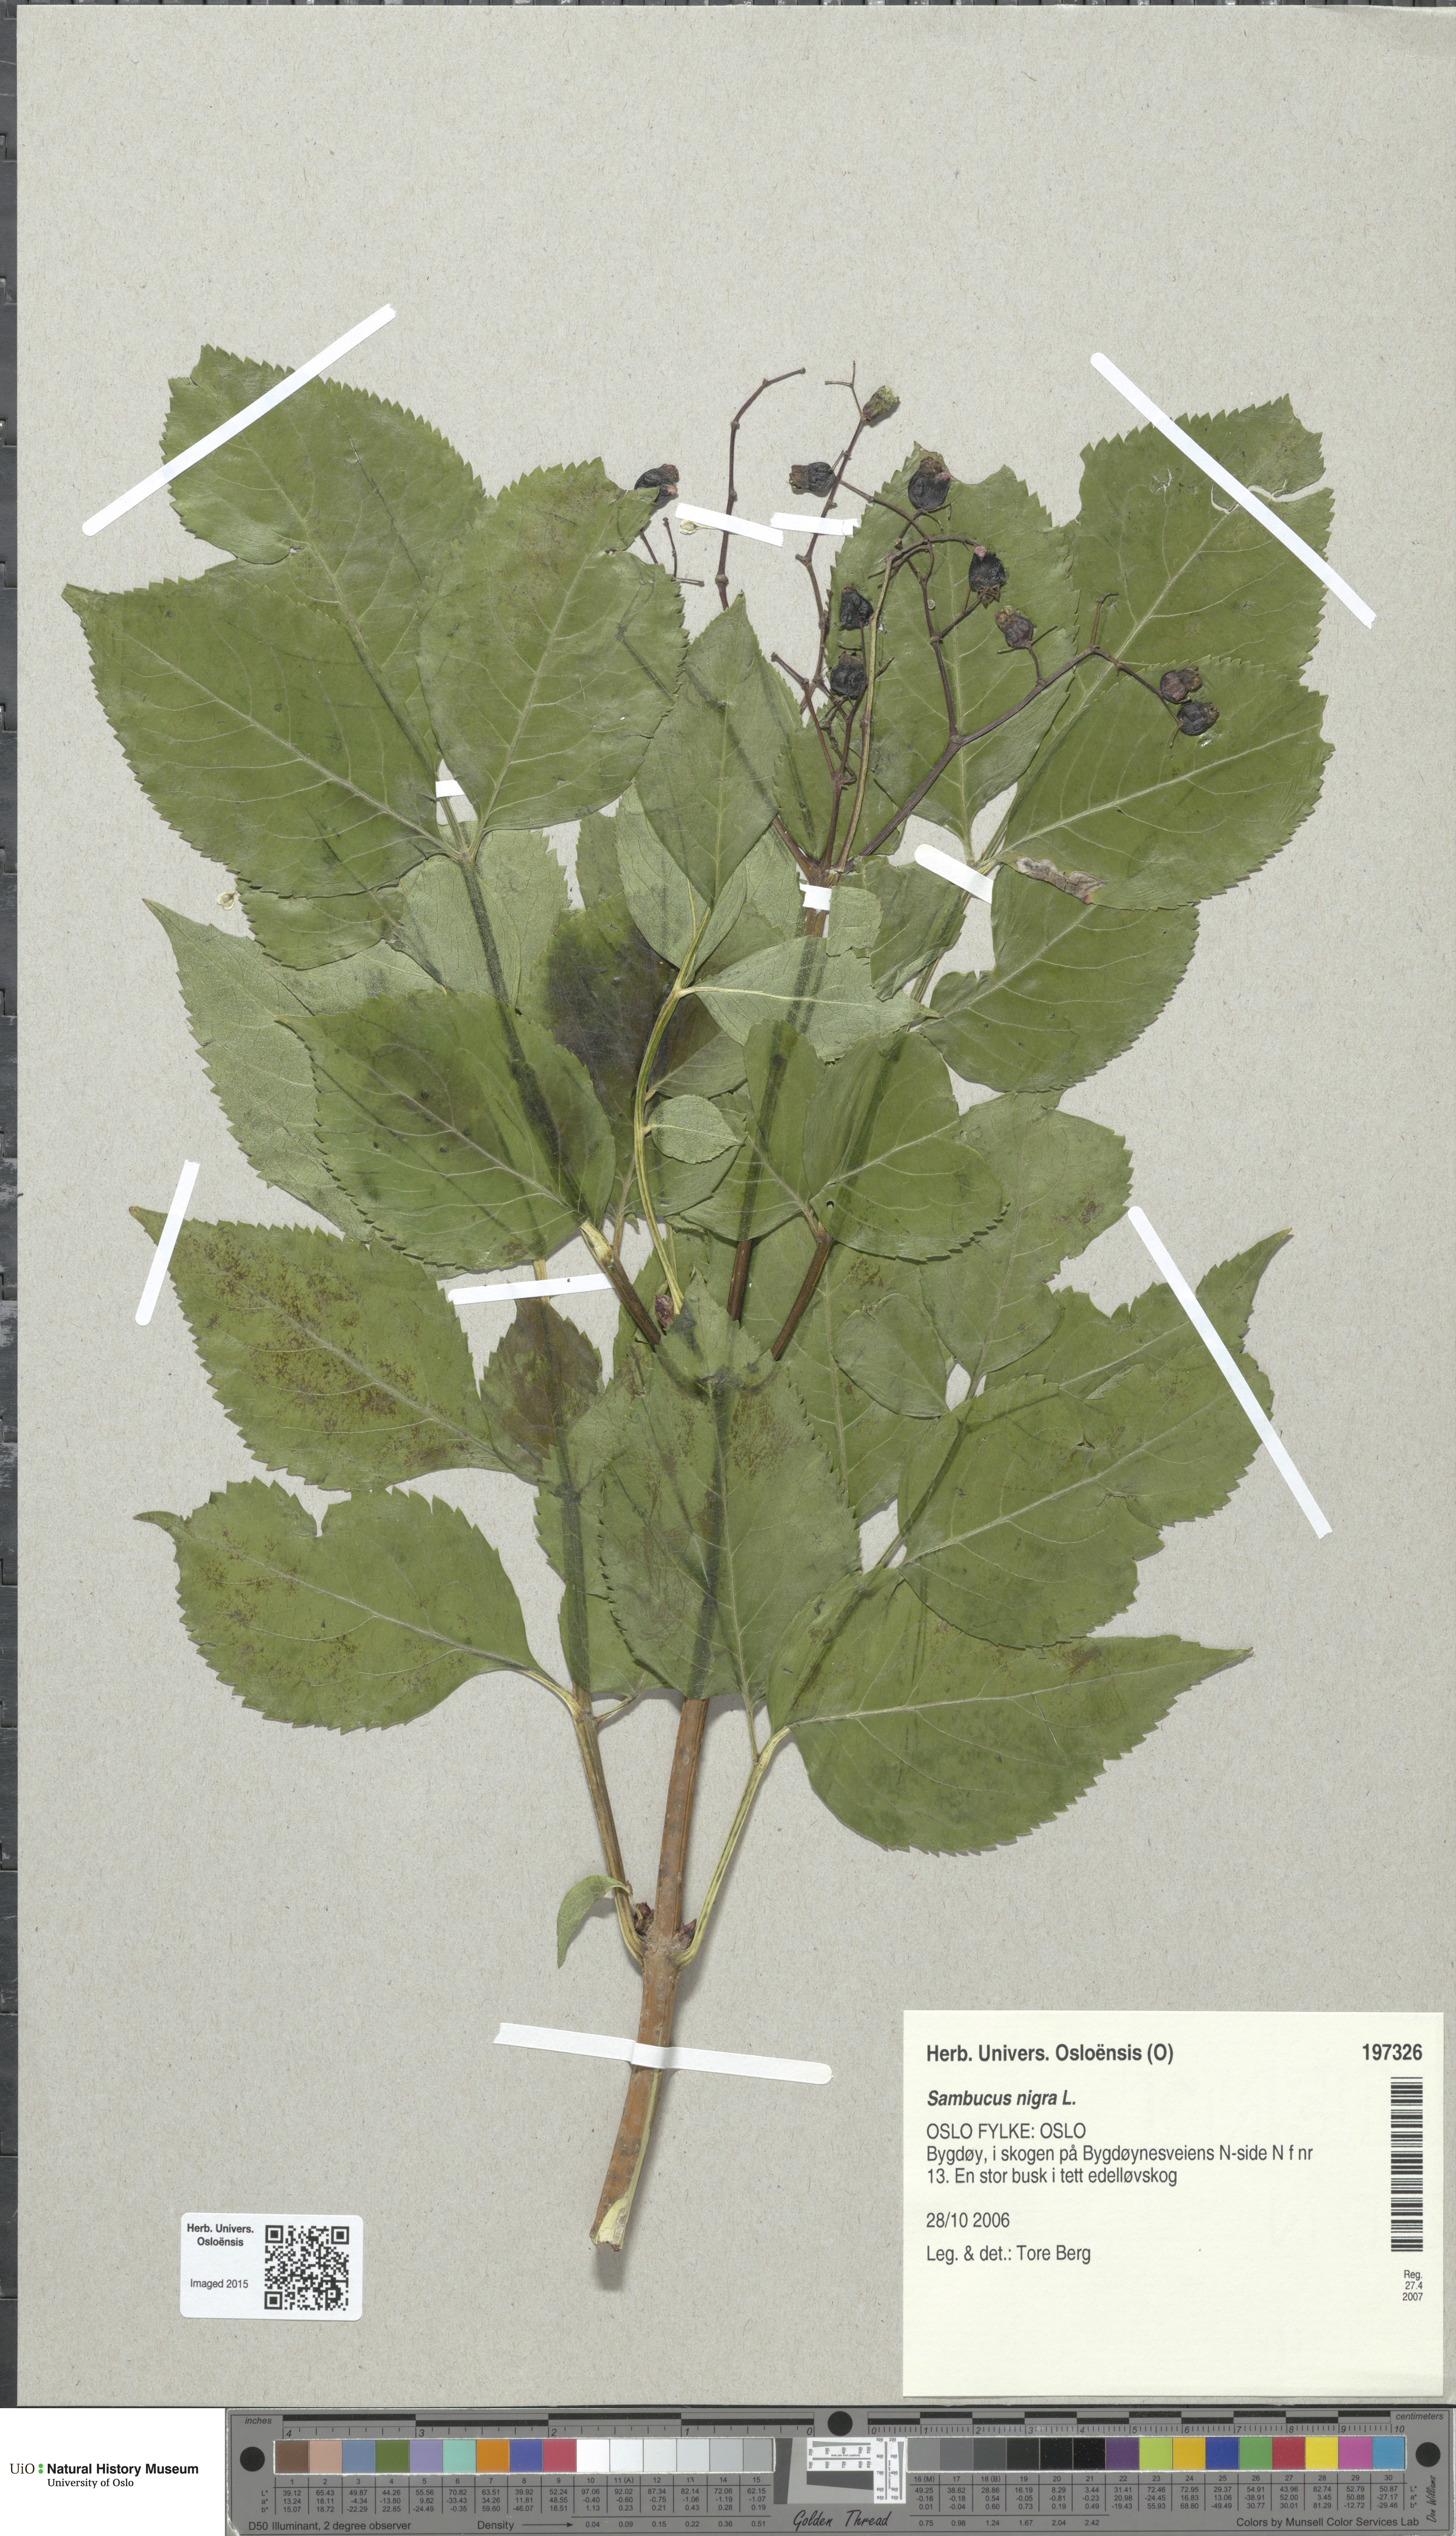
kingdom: Plantae
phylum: Tracheophyta
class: Magnoliopsida
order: Dipsacales
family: Viburnaceae
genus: Sambucus
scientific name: Sambucus nigra
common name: Elder
